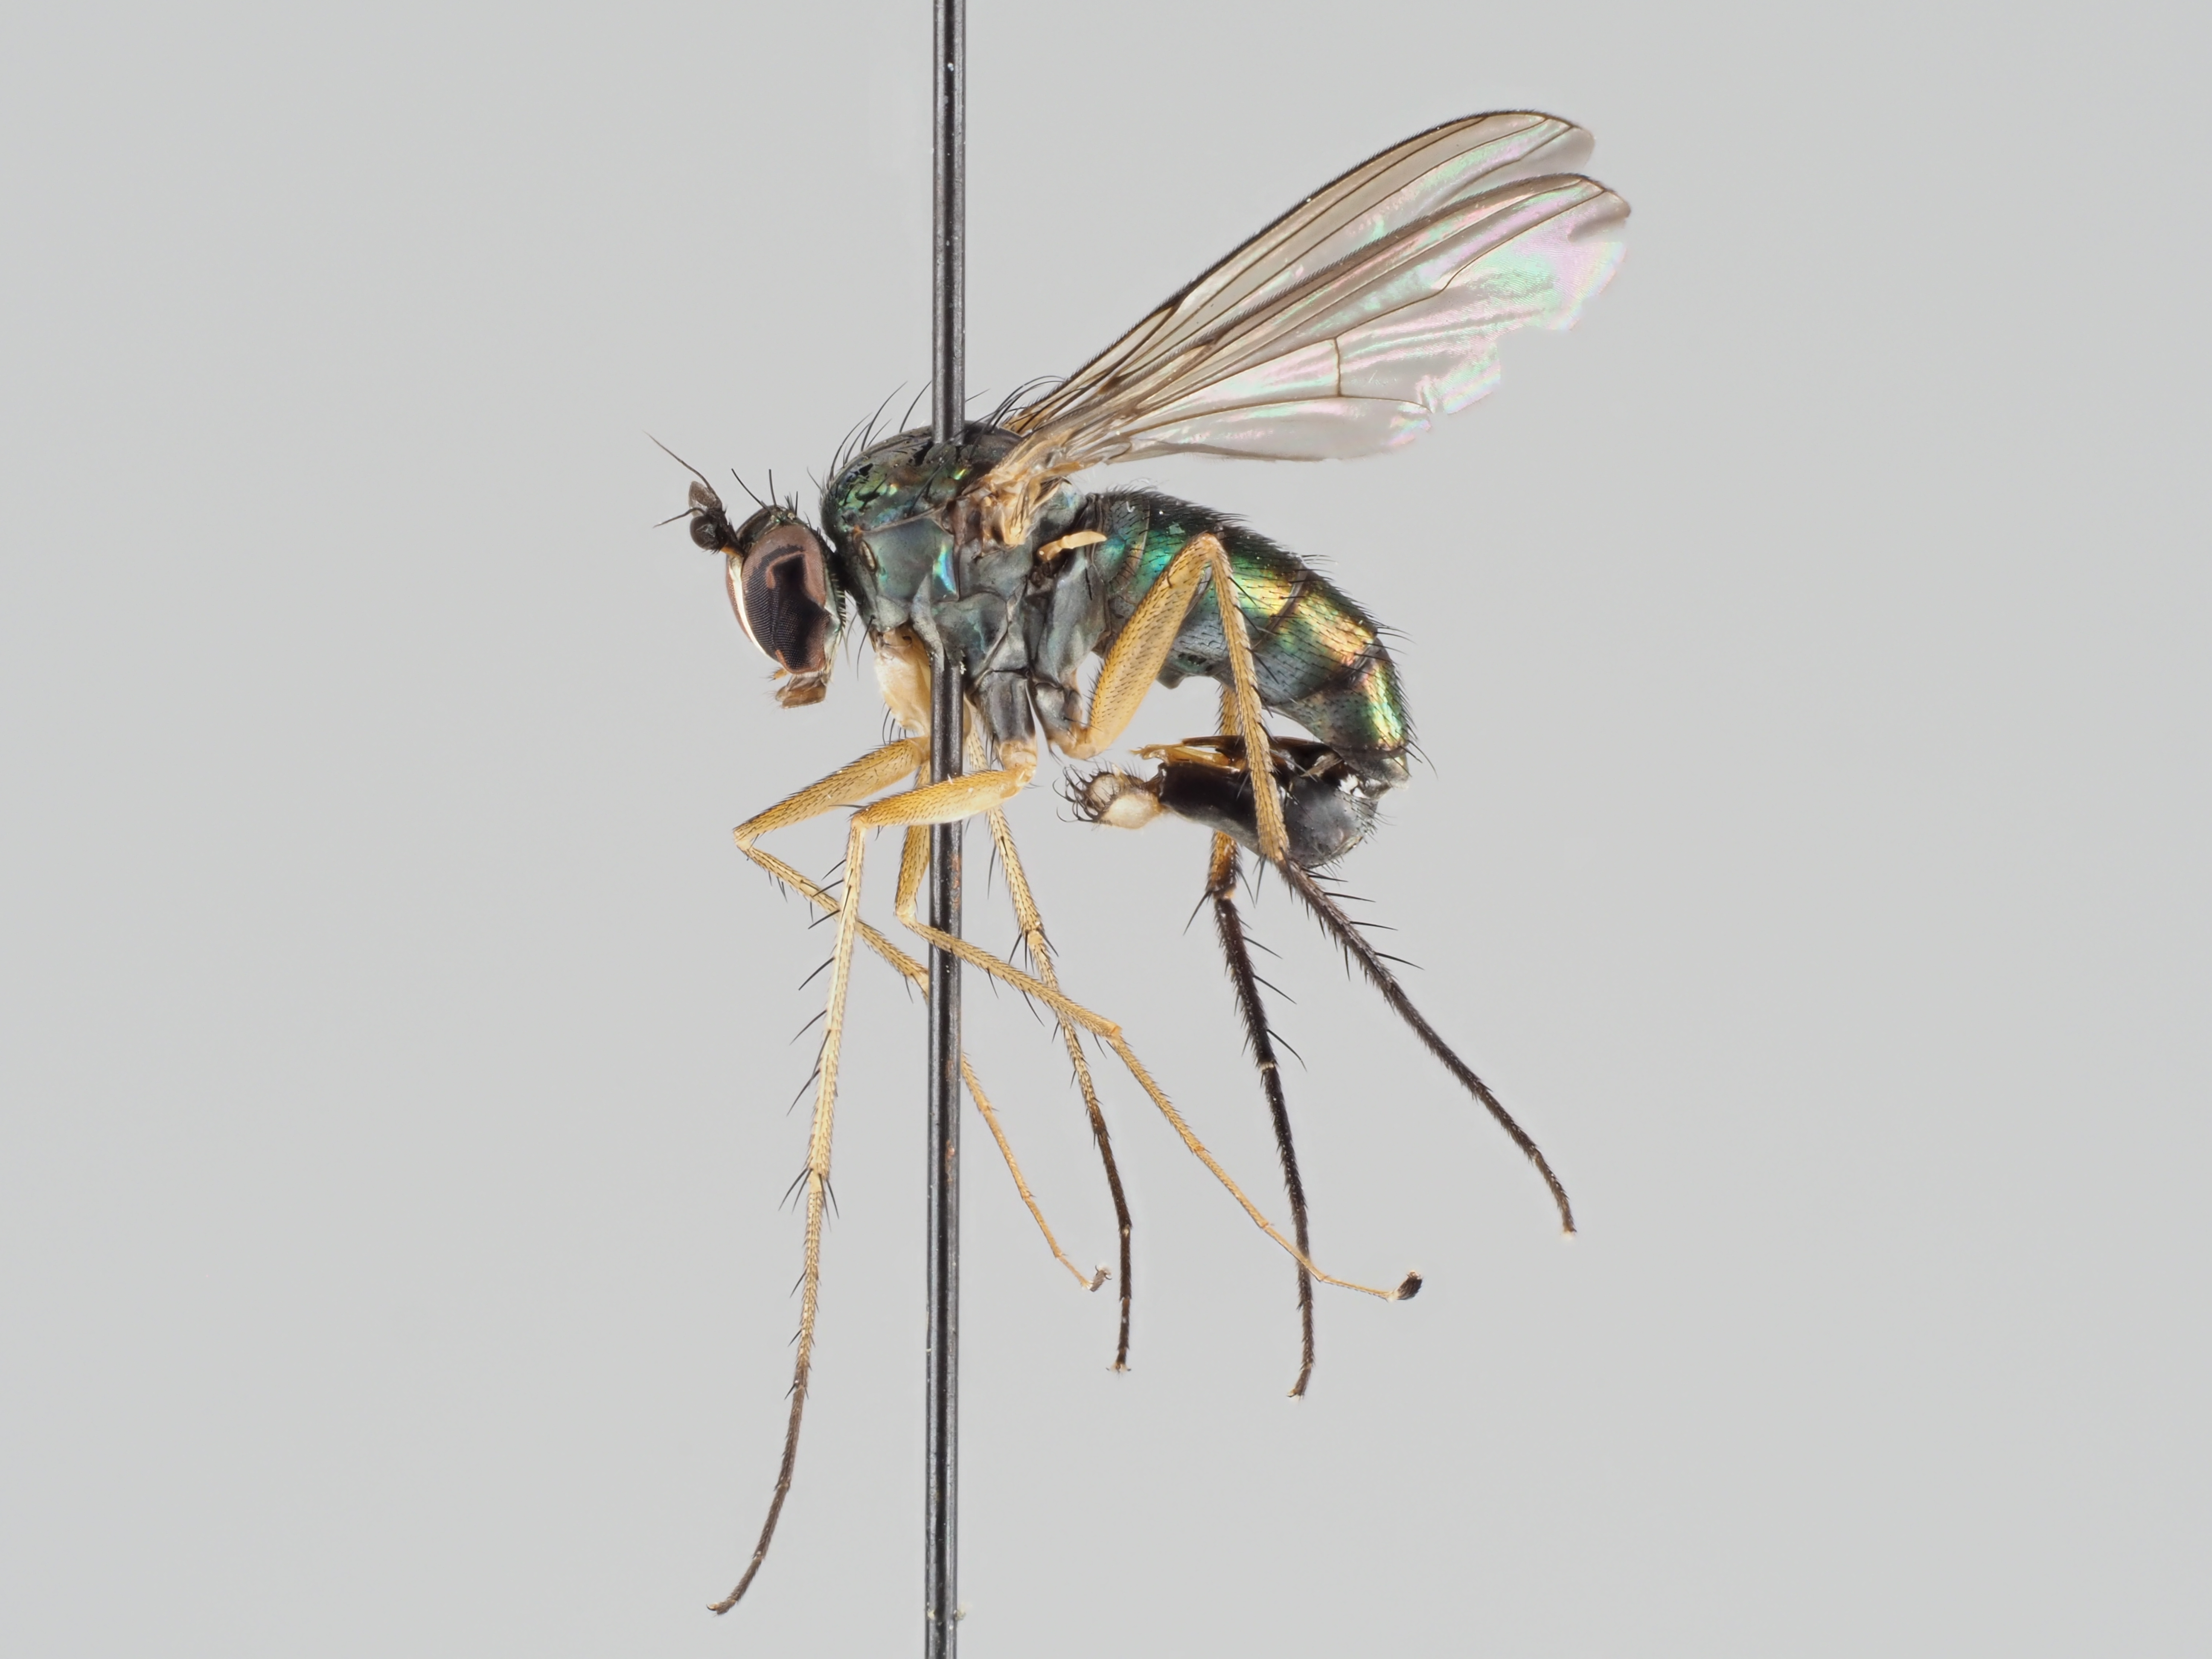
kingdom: Animalia
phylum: Arthropoda
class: Insecta
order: Diptera
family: Dolichopodidae
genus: Dolichopus
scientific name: Dolichopus nigricornis
